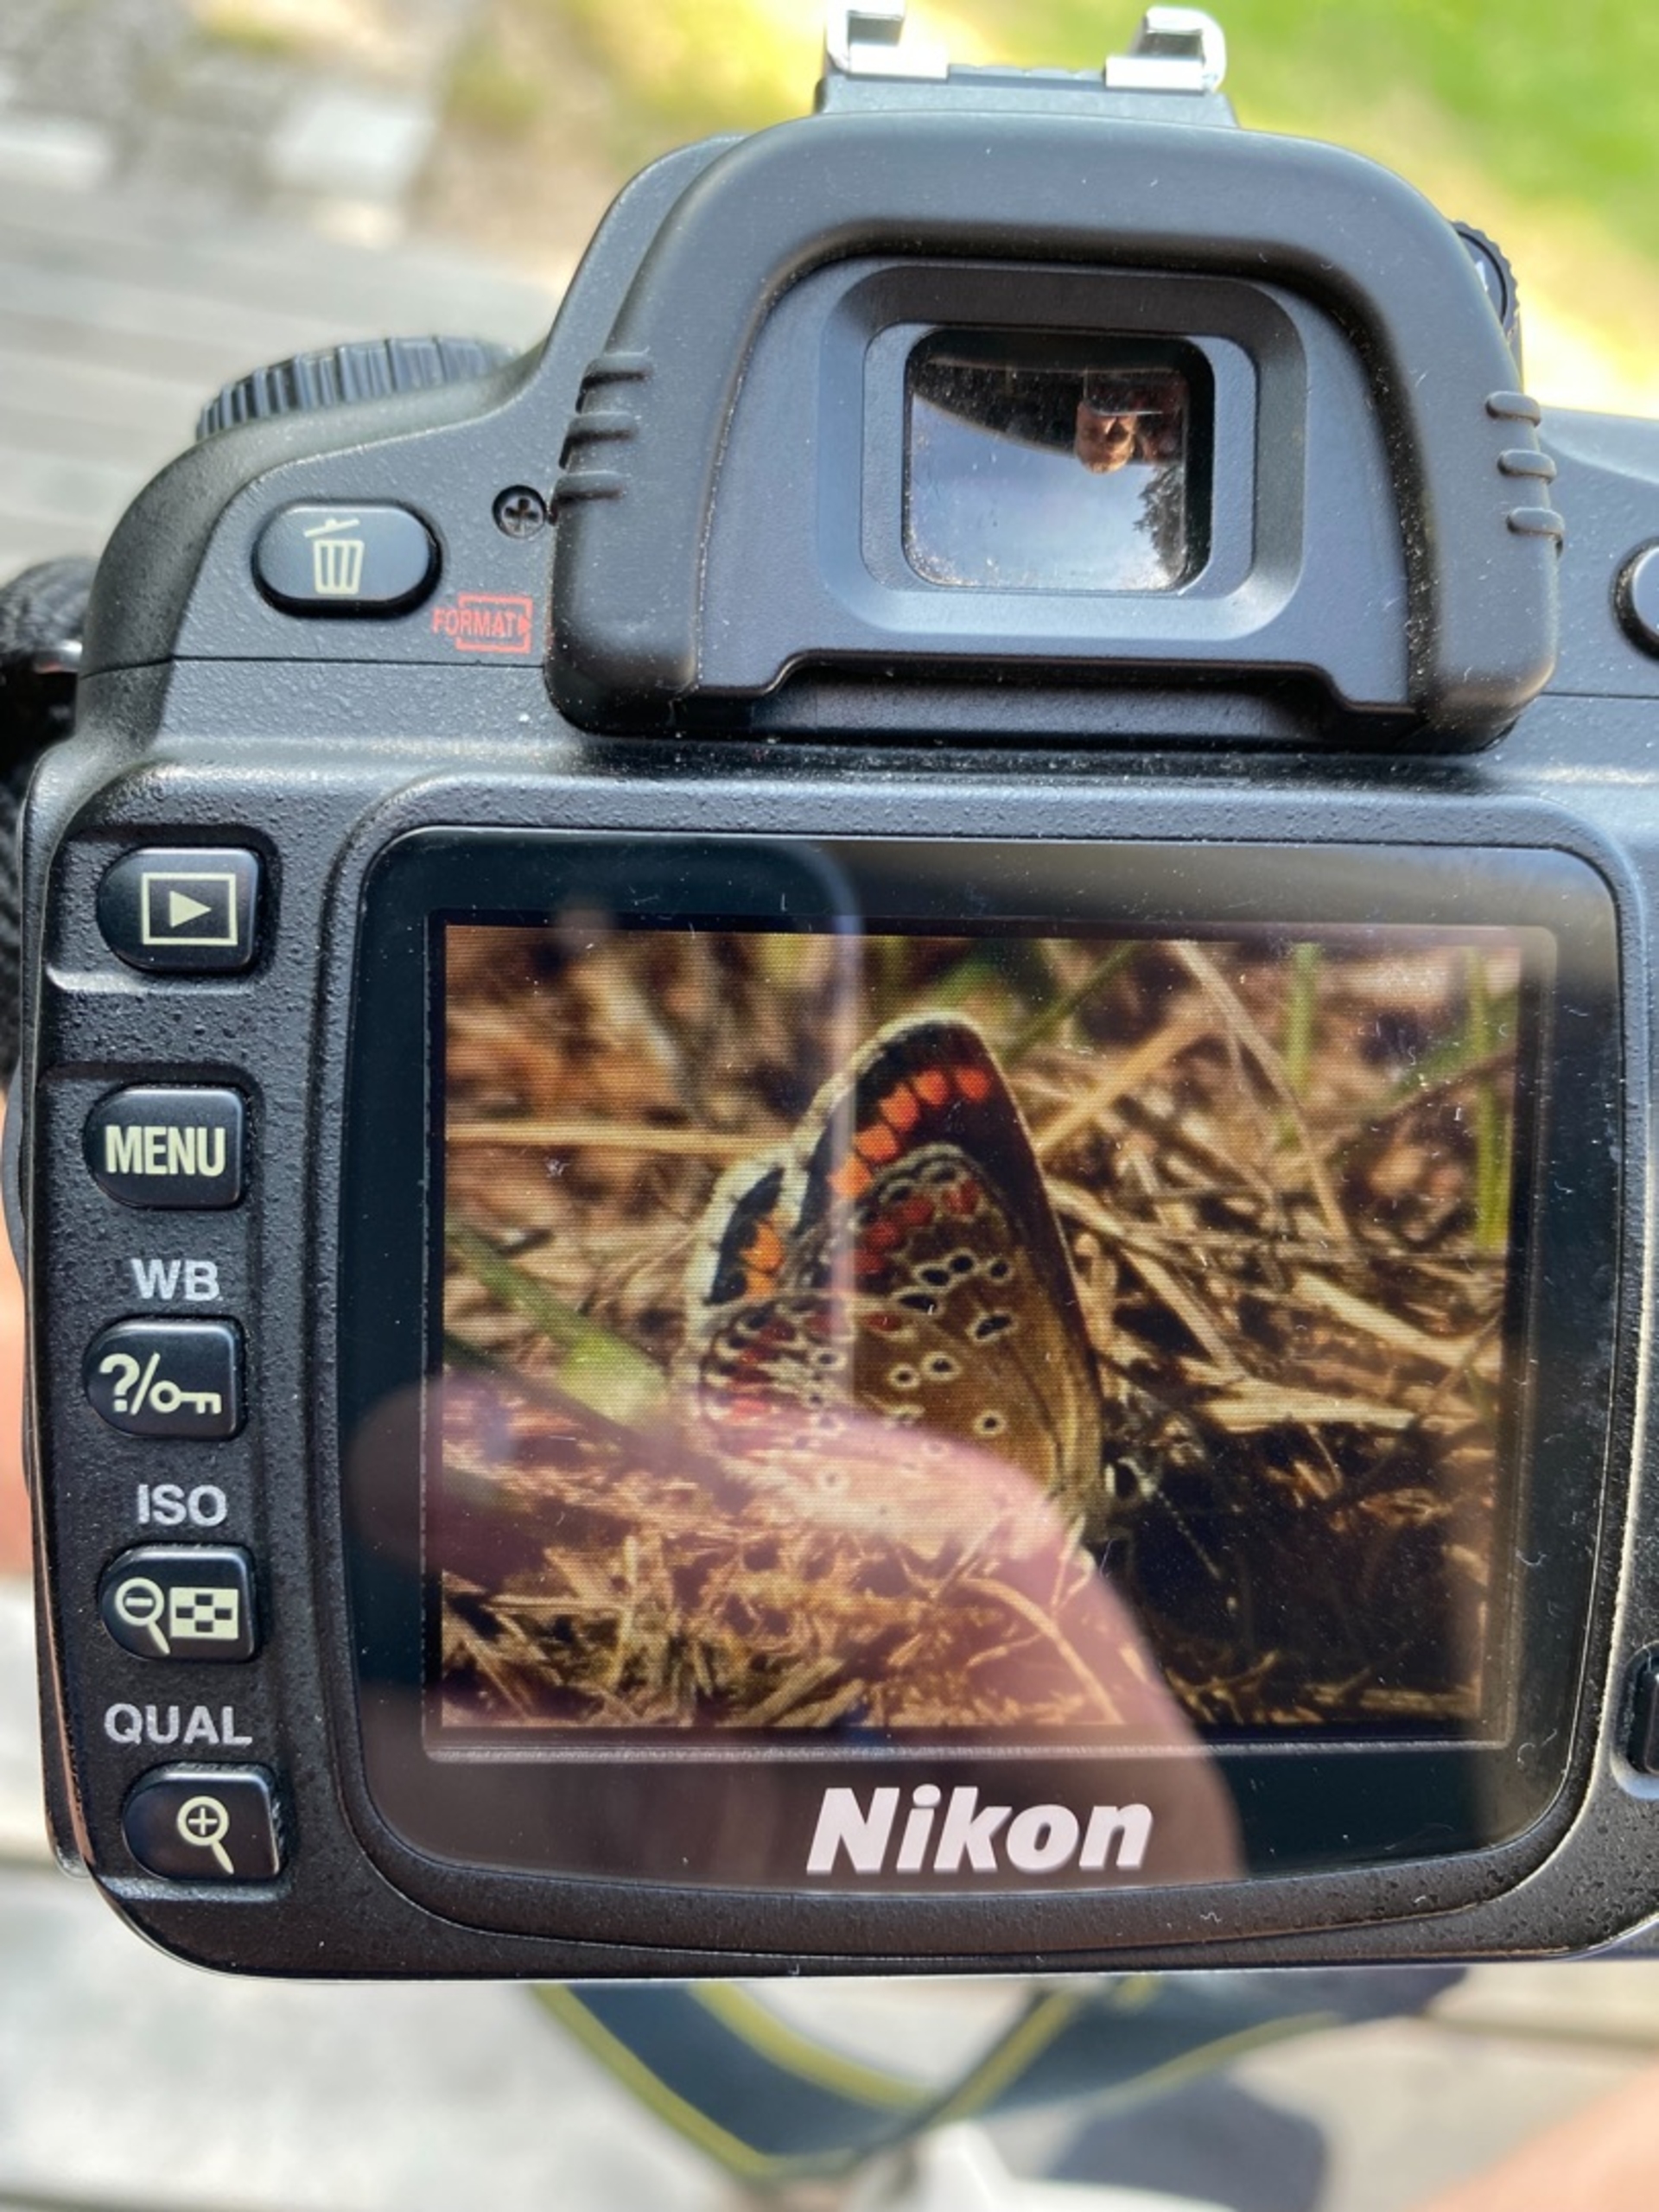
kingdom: Animalia
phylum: Arthropoda
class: Insecta
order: Lepidoptera
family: Lycaenidae
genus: Aricia
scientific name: Aricia agestis
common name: Rødplettet blåfugl
